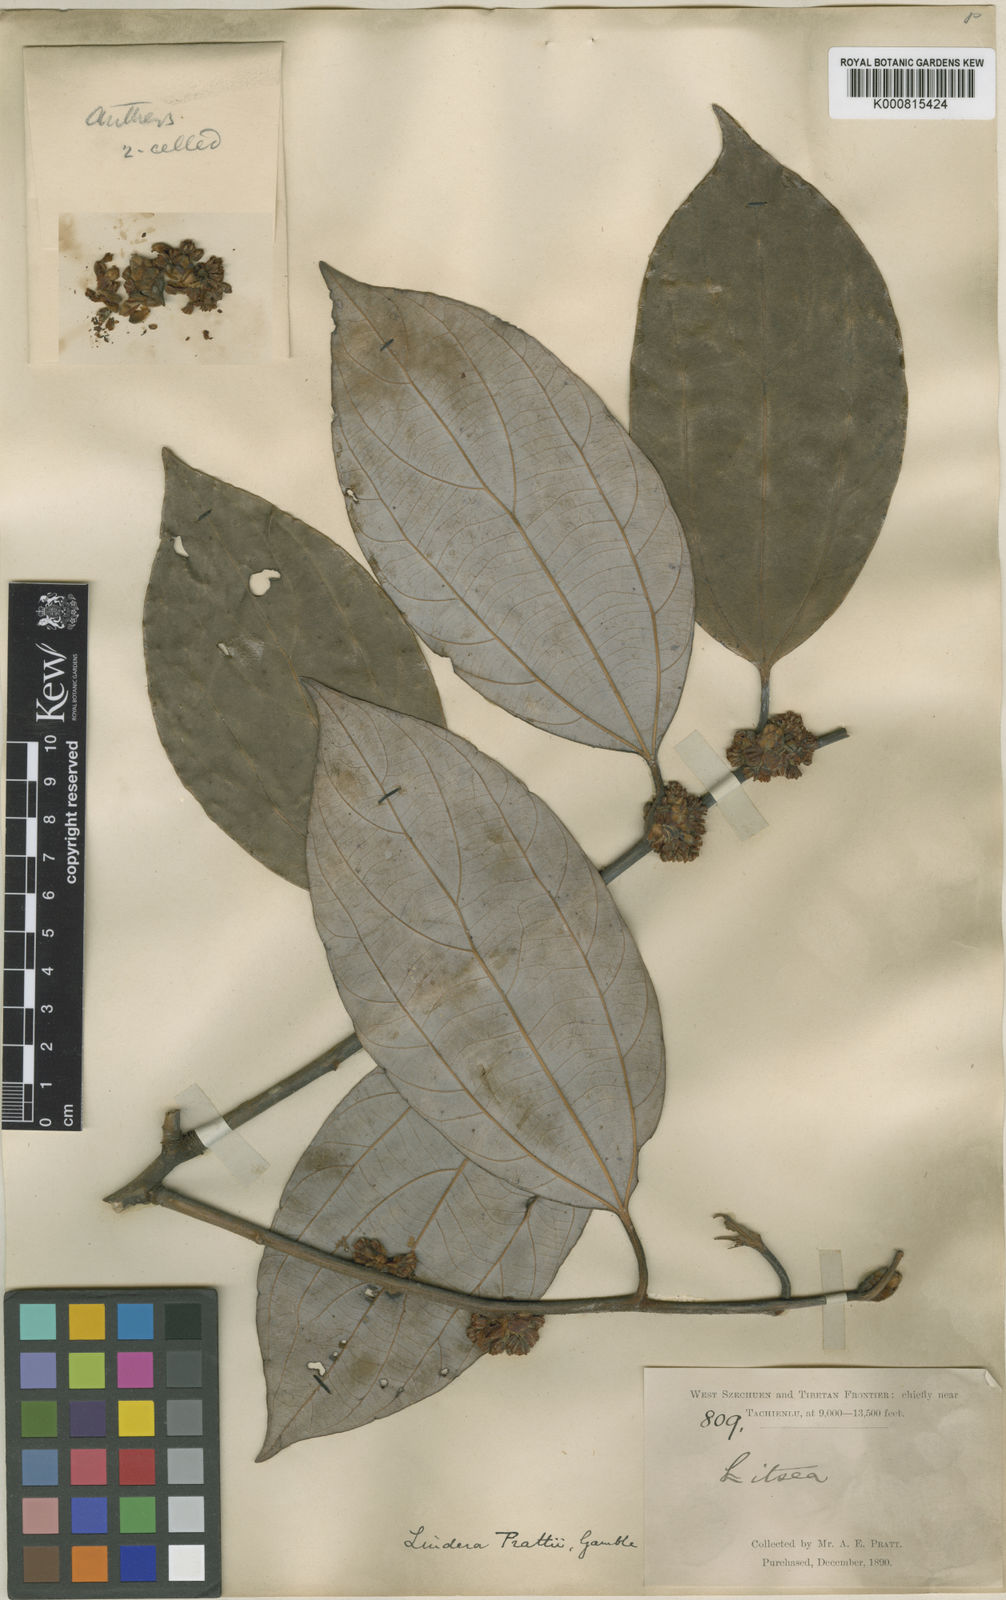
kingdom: Plantae
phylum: Tracheophyta
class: Magnoliopsida
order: Laurales
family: Lauraceae
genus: Lindera
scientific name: Lindera prattii
